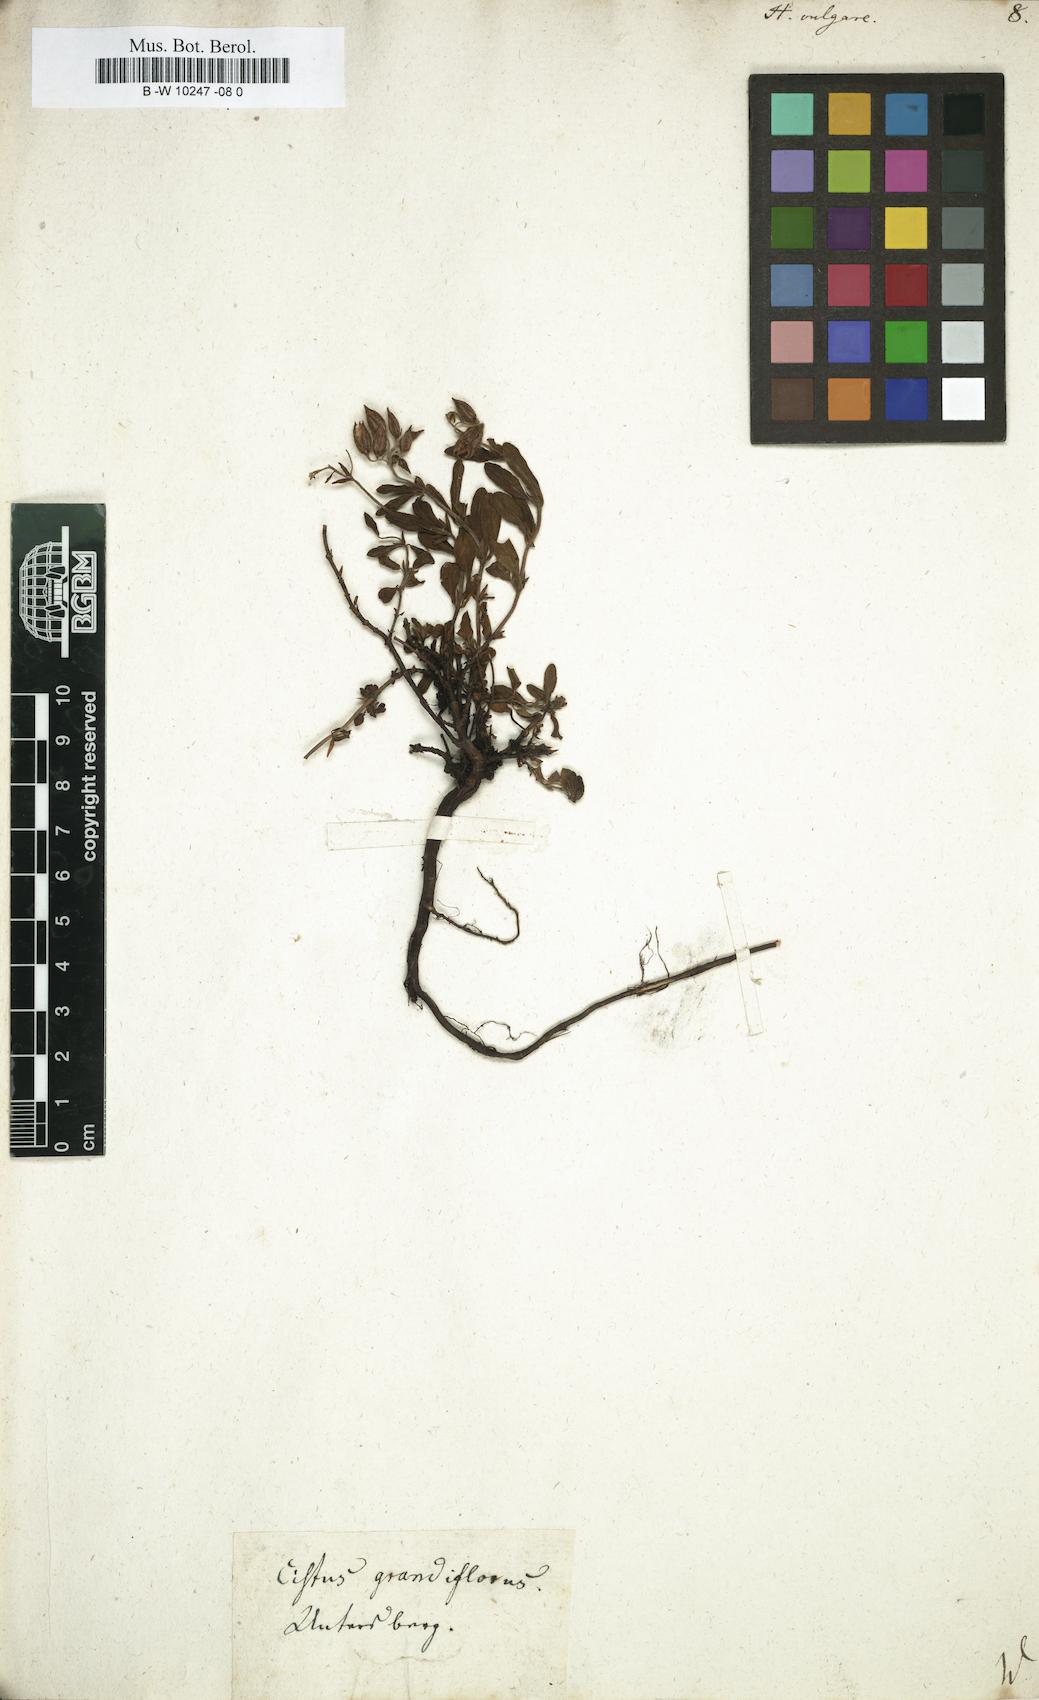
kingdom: Plantae
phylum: Tracheophyta
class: Magnoliopsida
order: Malvales
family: Cistaceae
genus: Helianthemum
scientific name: Helianthemum nummularium
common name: Common rock-rose
